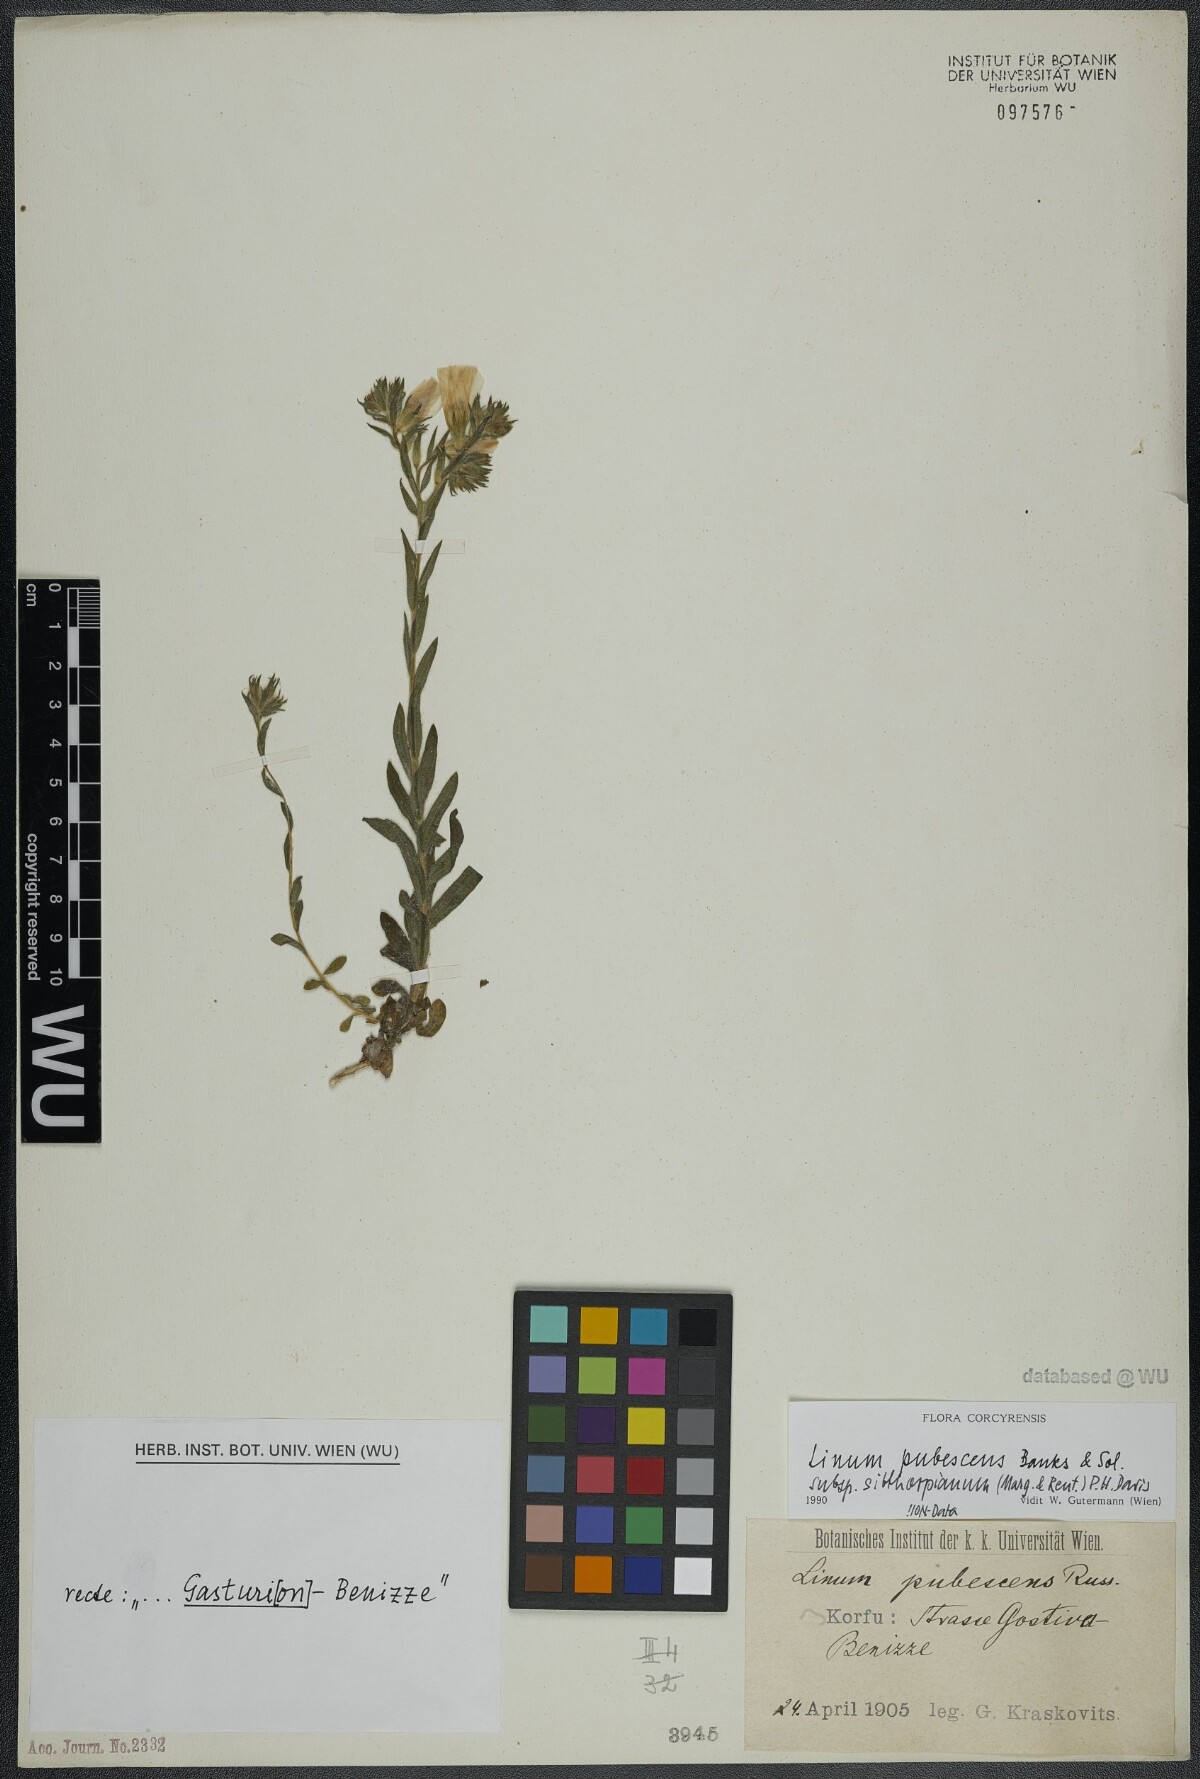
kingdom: Plantae
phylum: Tracheophyta
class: Magnoliopsida
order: Malpighiales
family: Linaceae
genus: Linum
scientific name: Linum pubescens
